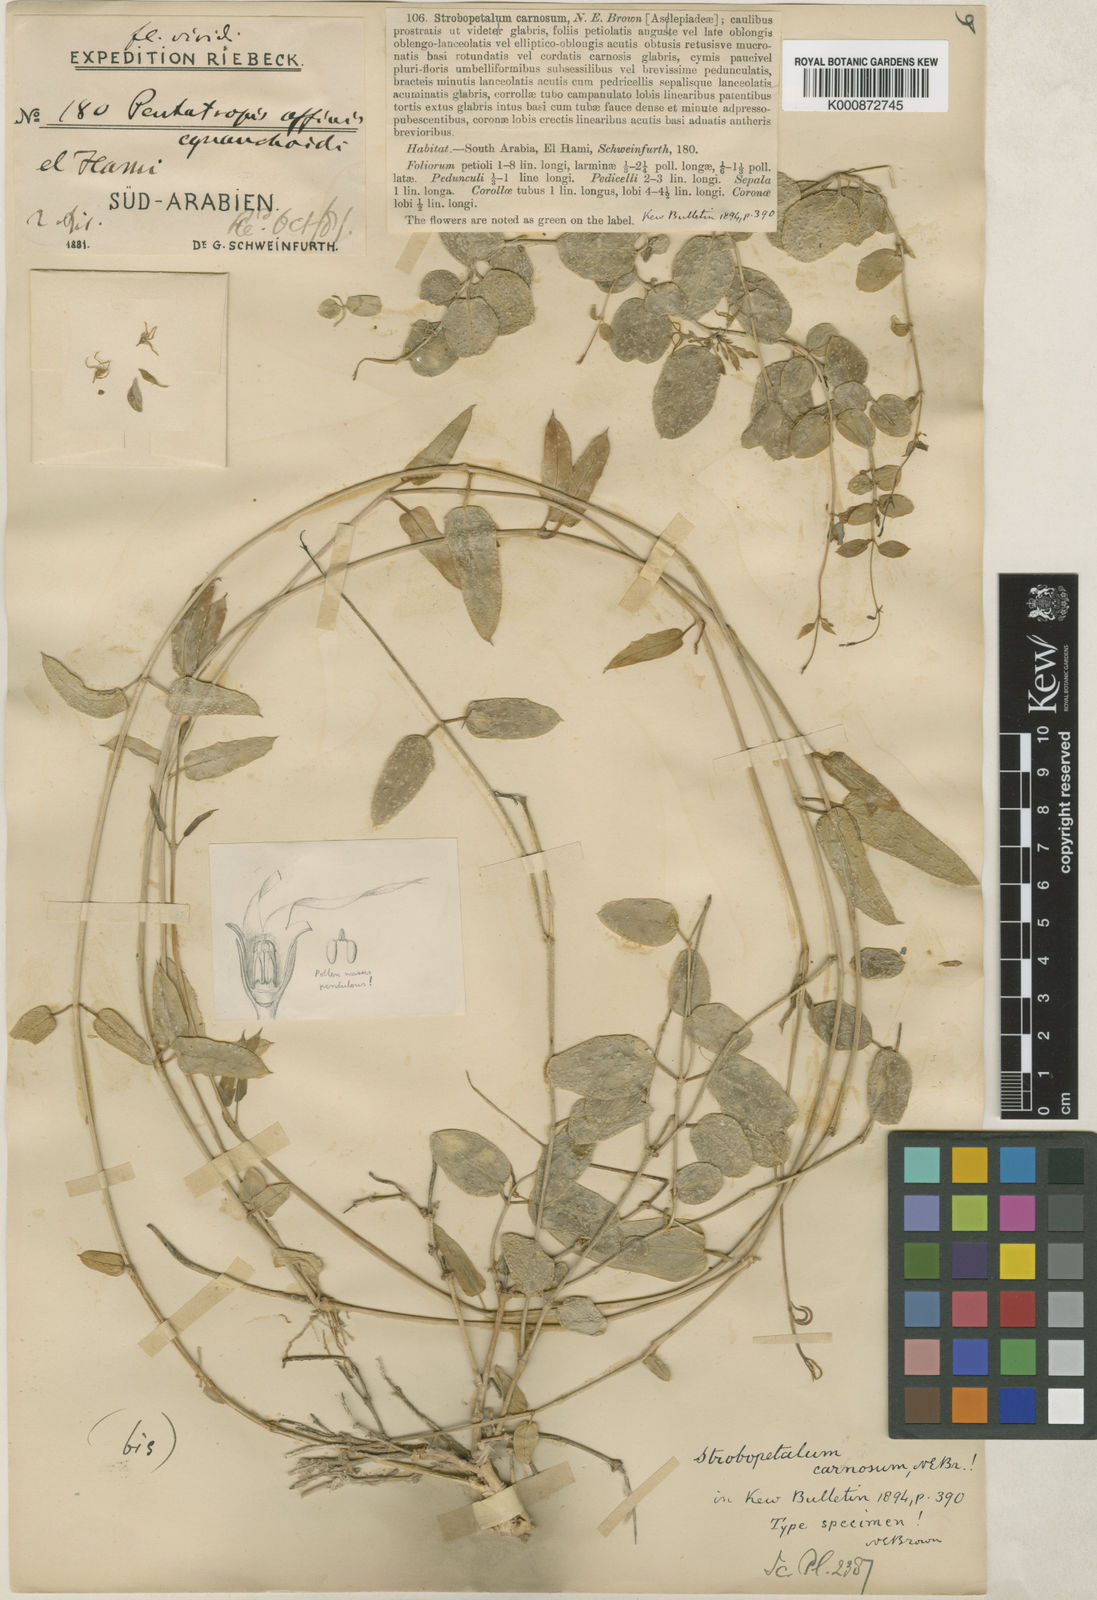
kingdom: Plantae
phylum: Tracheophyta
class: Magnoliopsida
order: Gentianales
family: Apocynaceae
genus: Pentatropis
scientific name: Pentatropis
